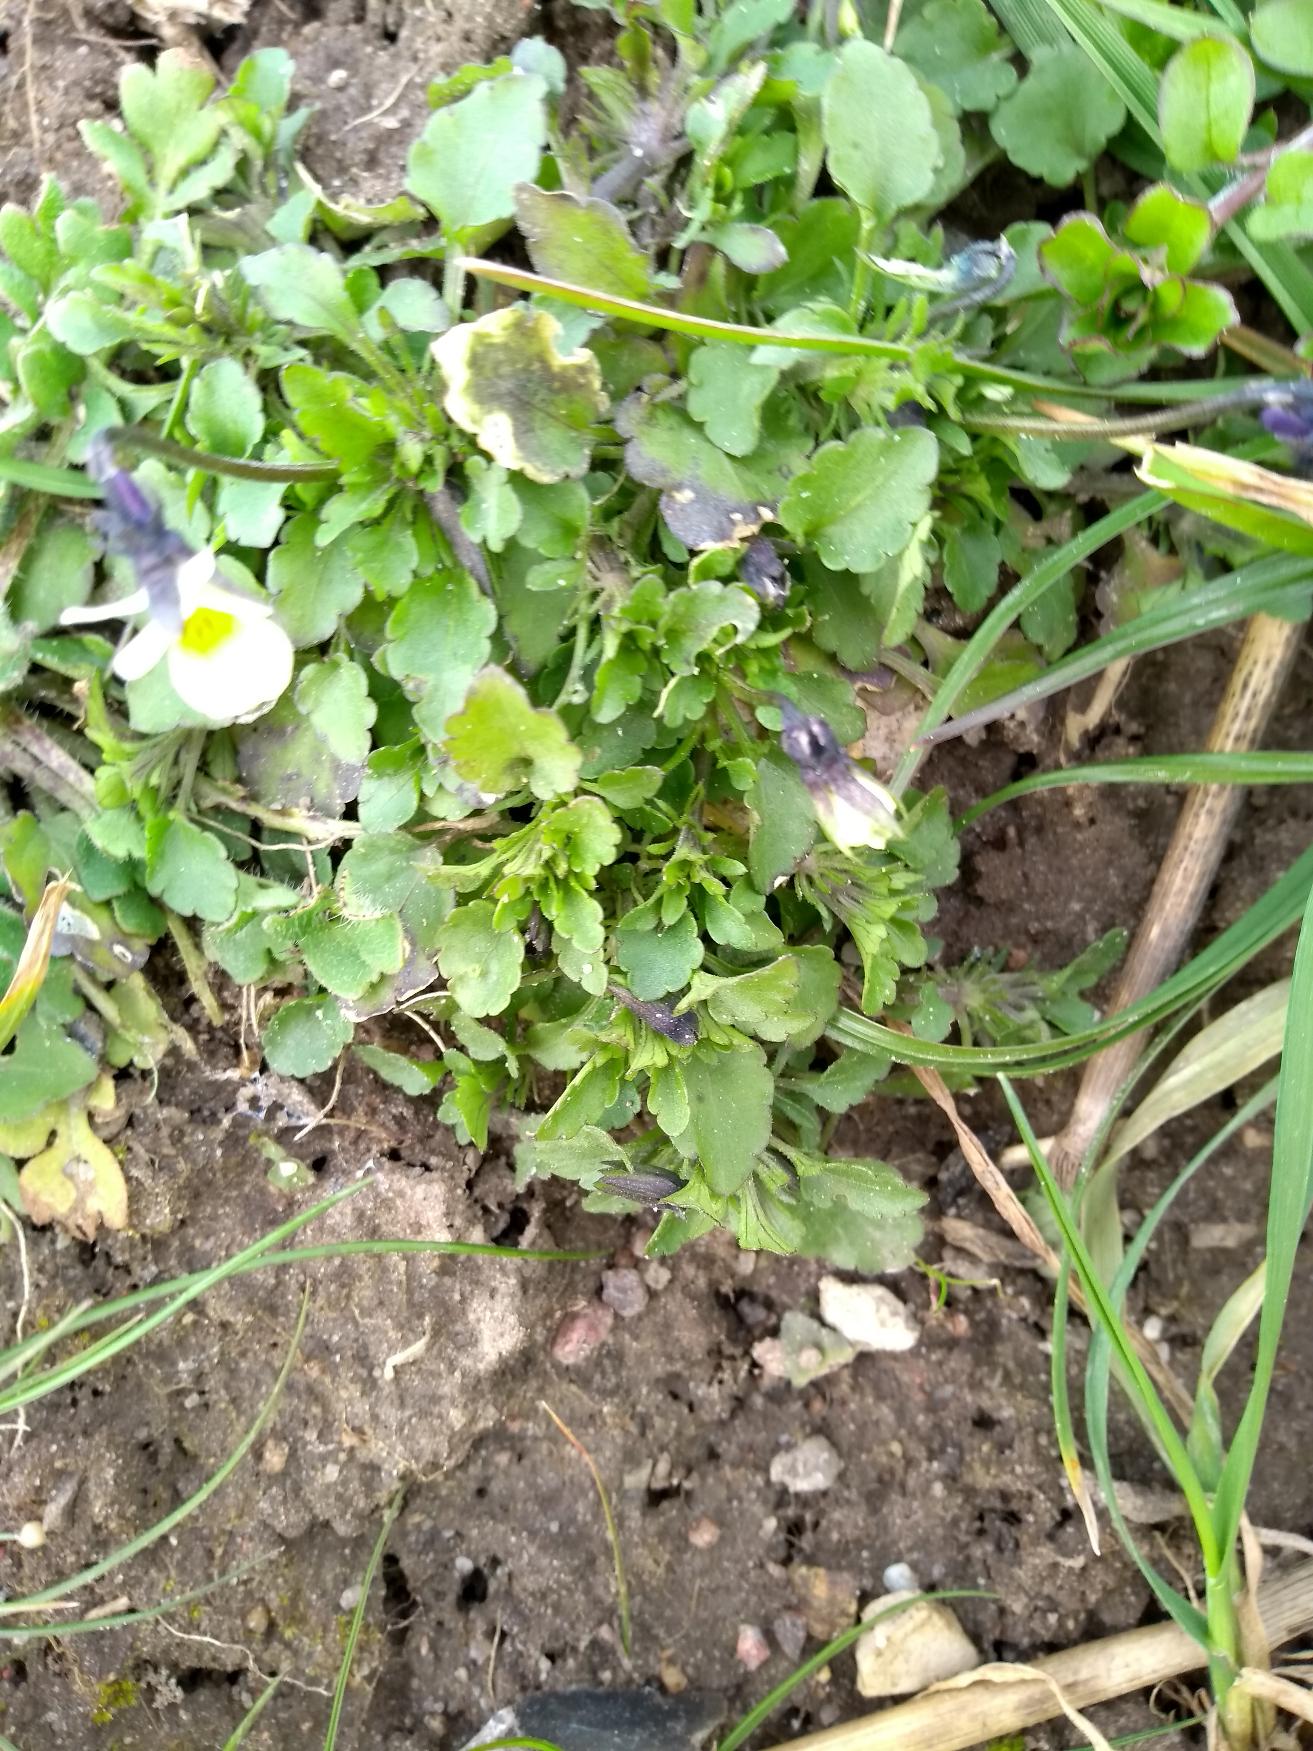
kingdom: Plantae
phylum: Tracheophyta
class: Magnoliopsida
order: Malpighiales
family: Violaceae
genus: Viola
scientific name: Viola arvensis
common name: Ager-stedmoderblomst
